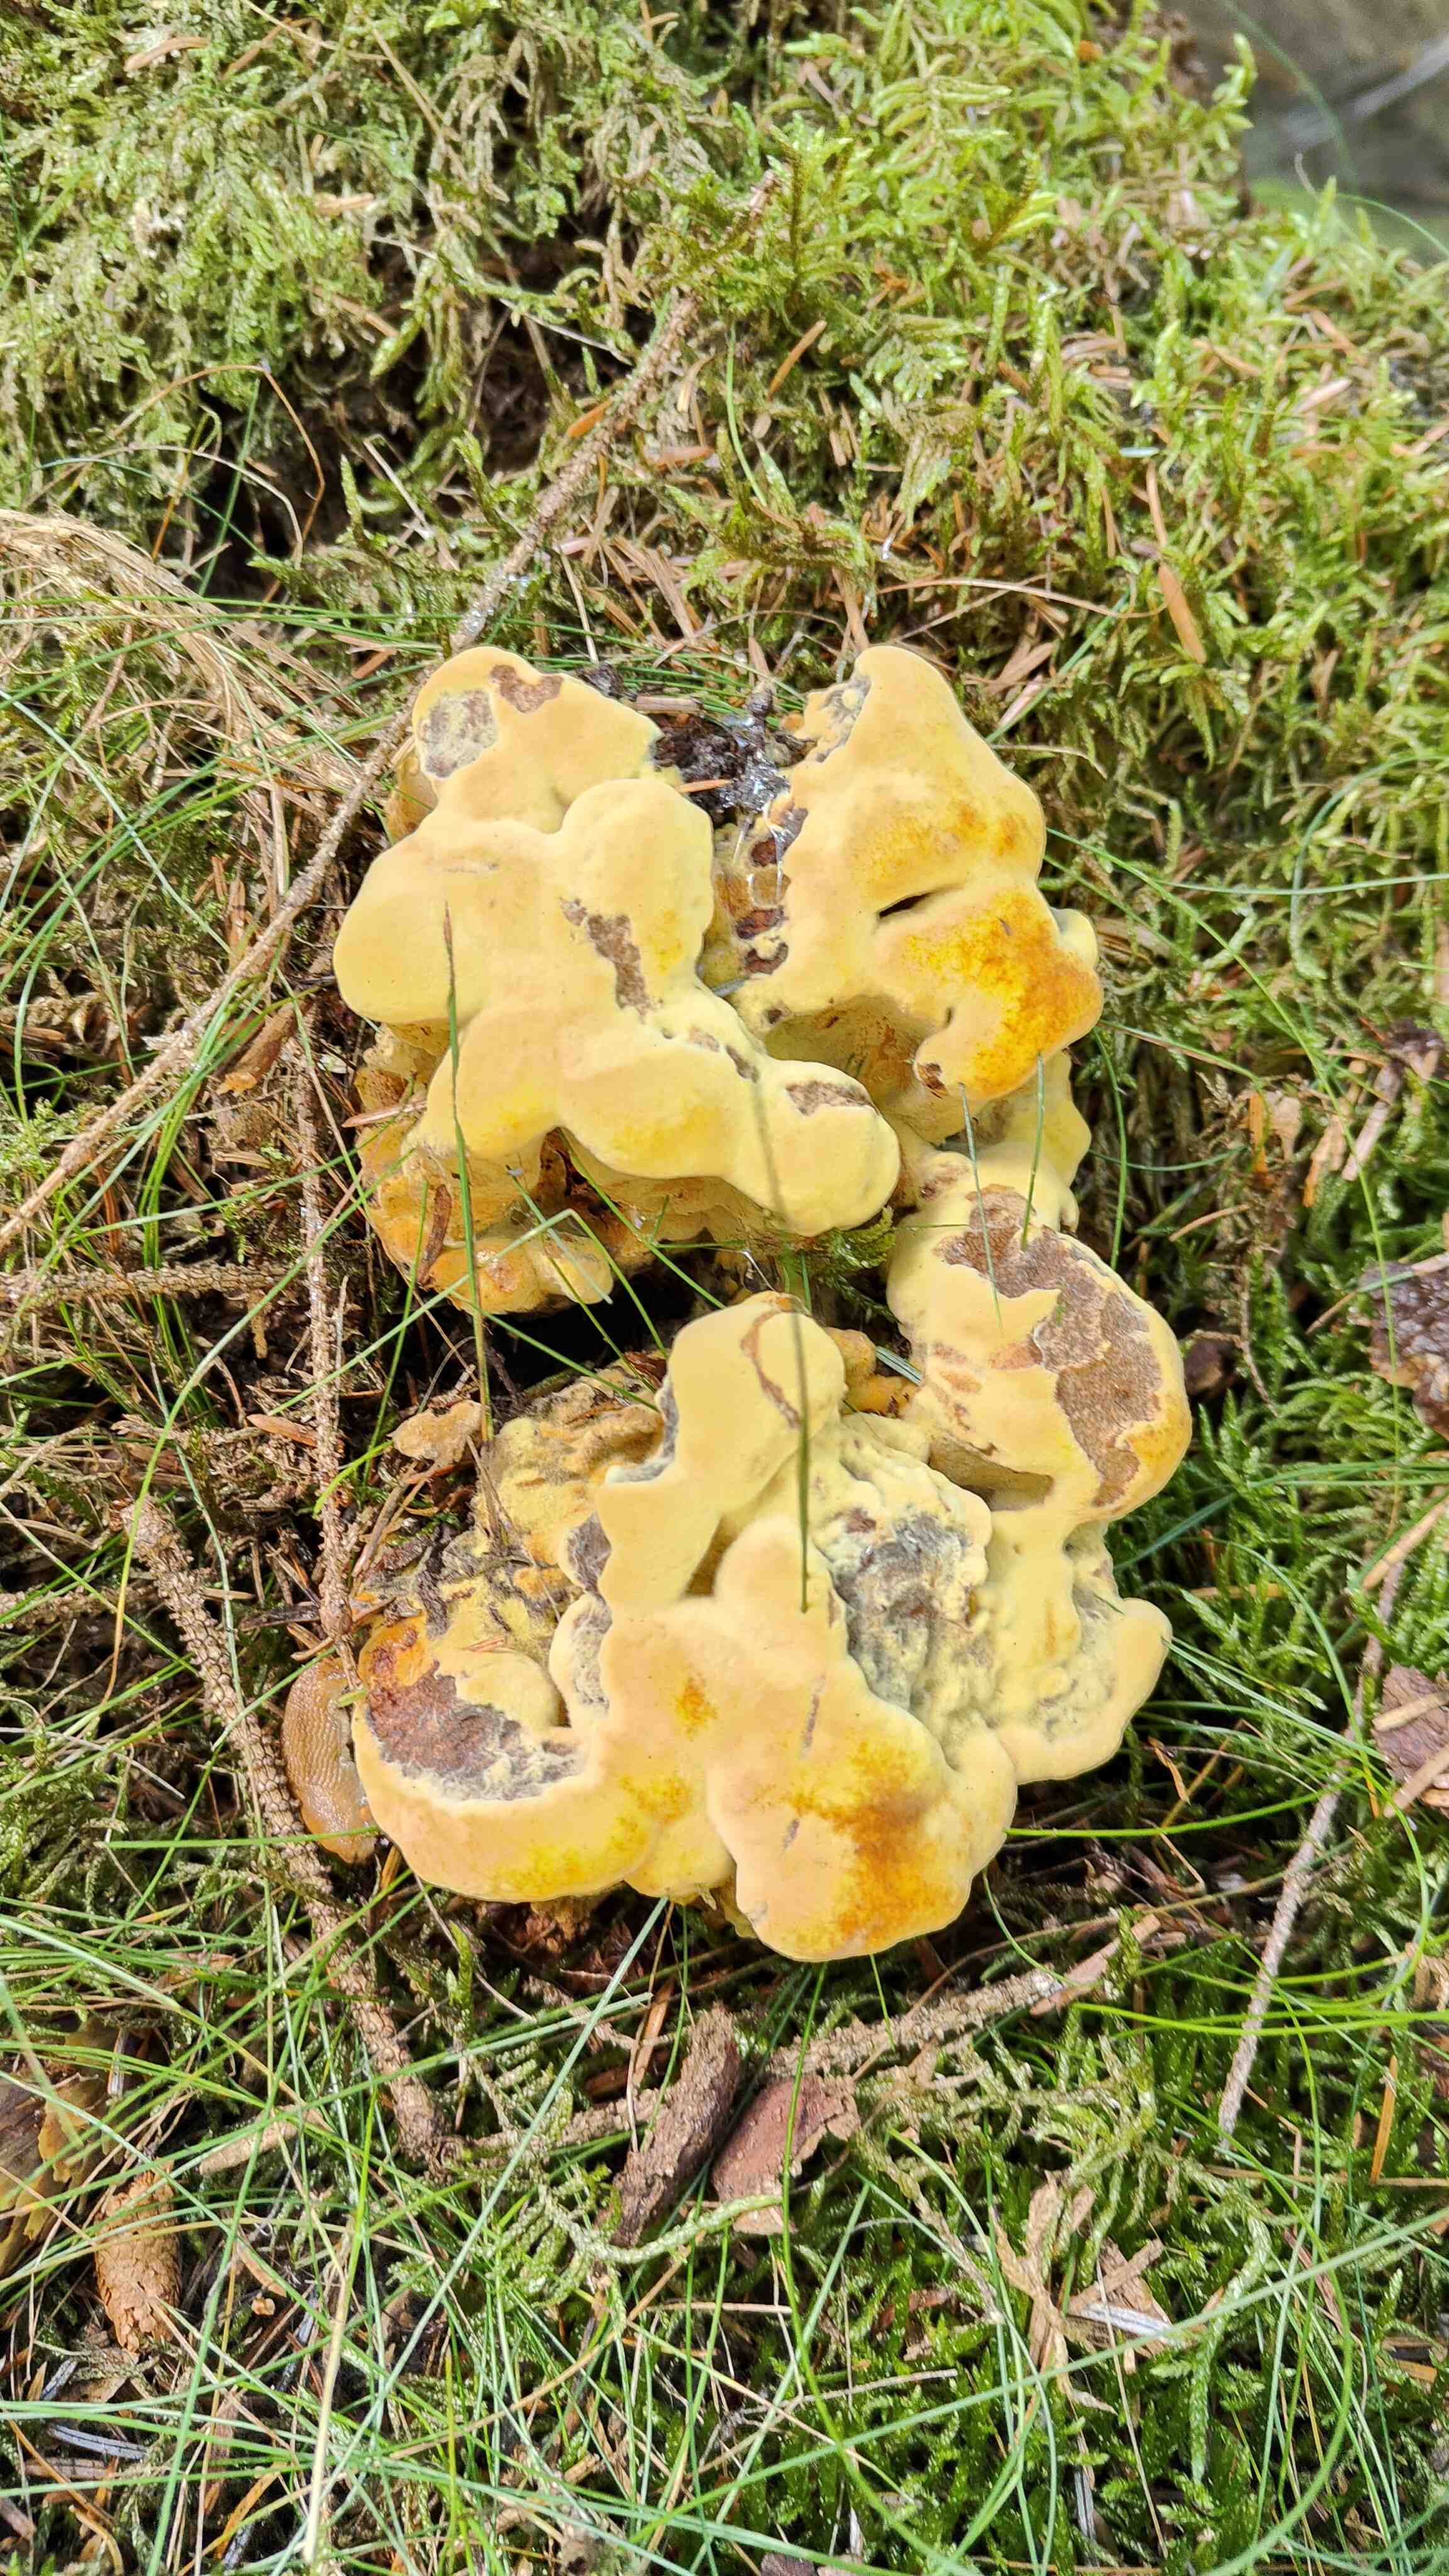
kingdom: Fungi
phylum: Basidiomycota
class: Agaricomycetes
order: Polyporales
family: Laetiporaceae
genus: Phaeolus
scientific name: Phaeolus schweinitzii
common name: brunporesvamp
